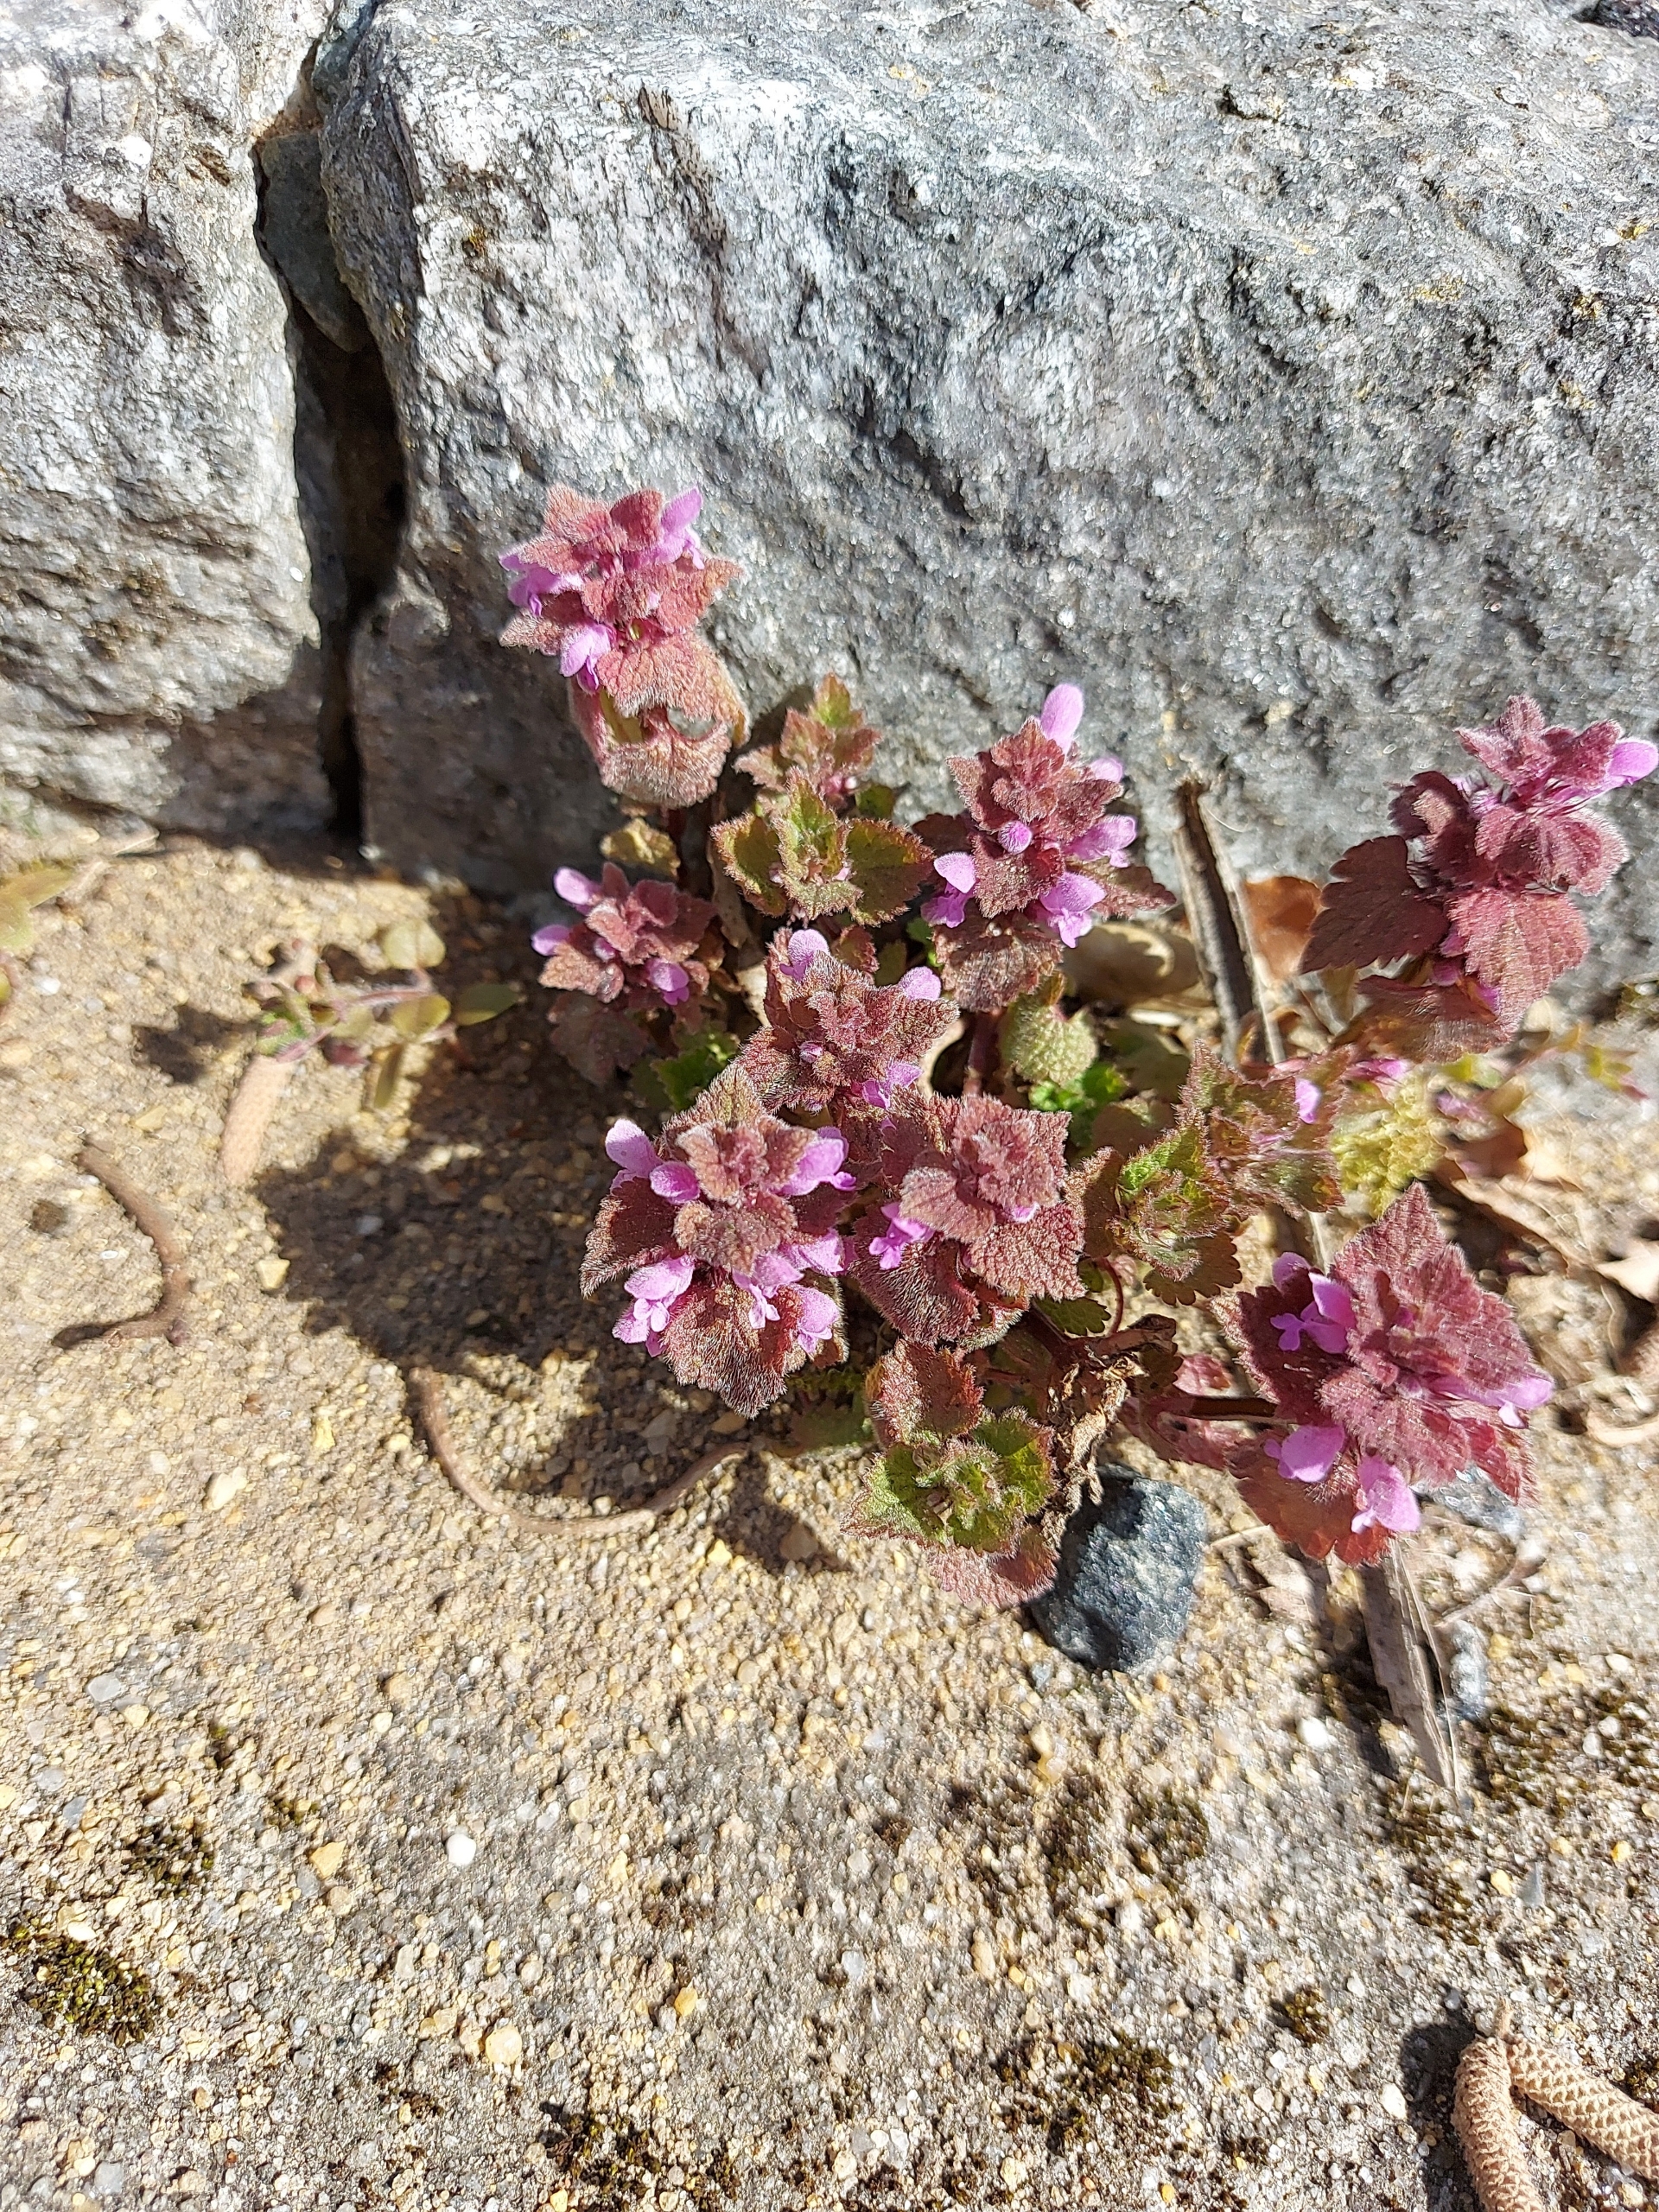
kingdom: Plantae
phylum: Tracheophyta
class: Magnoliopsida
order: Lamiales
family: Lamiaceae
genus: Lamium
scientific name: Lamium purpureum
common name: Rød tvetand
